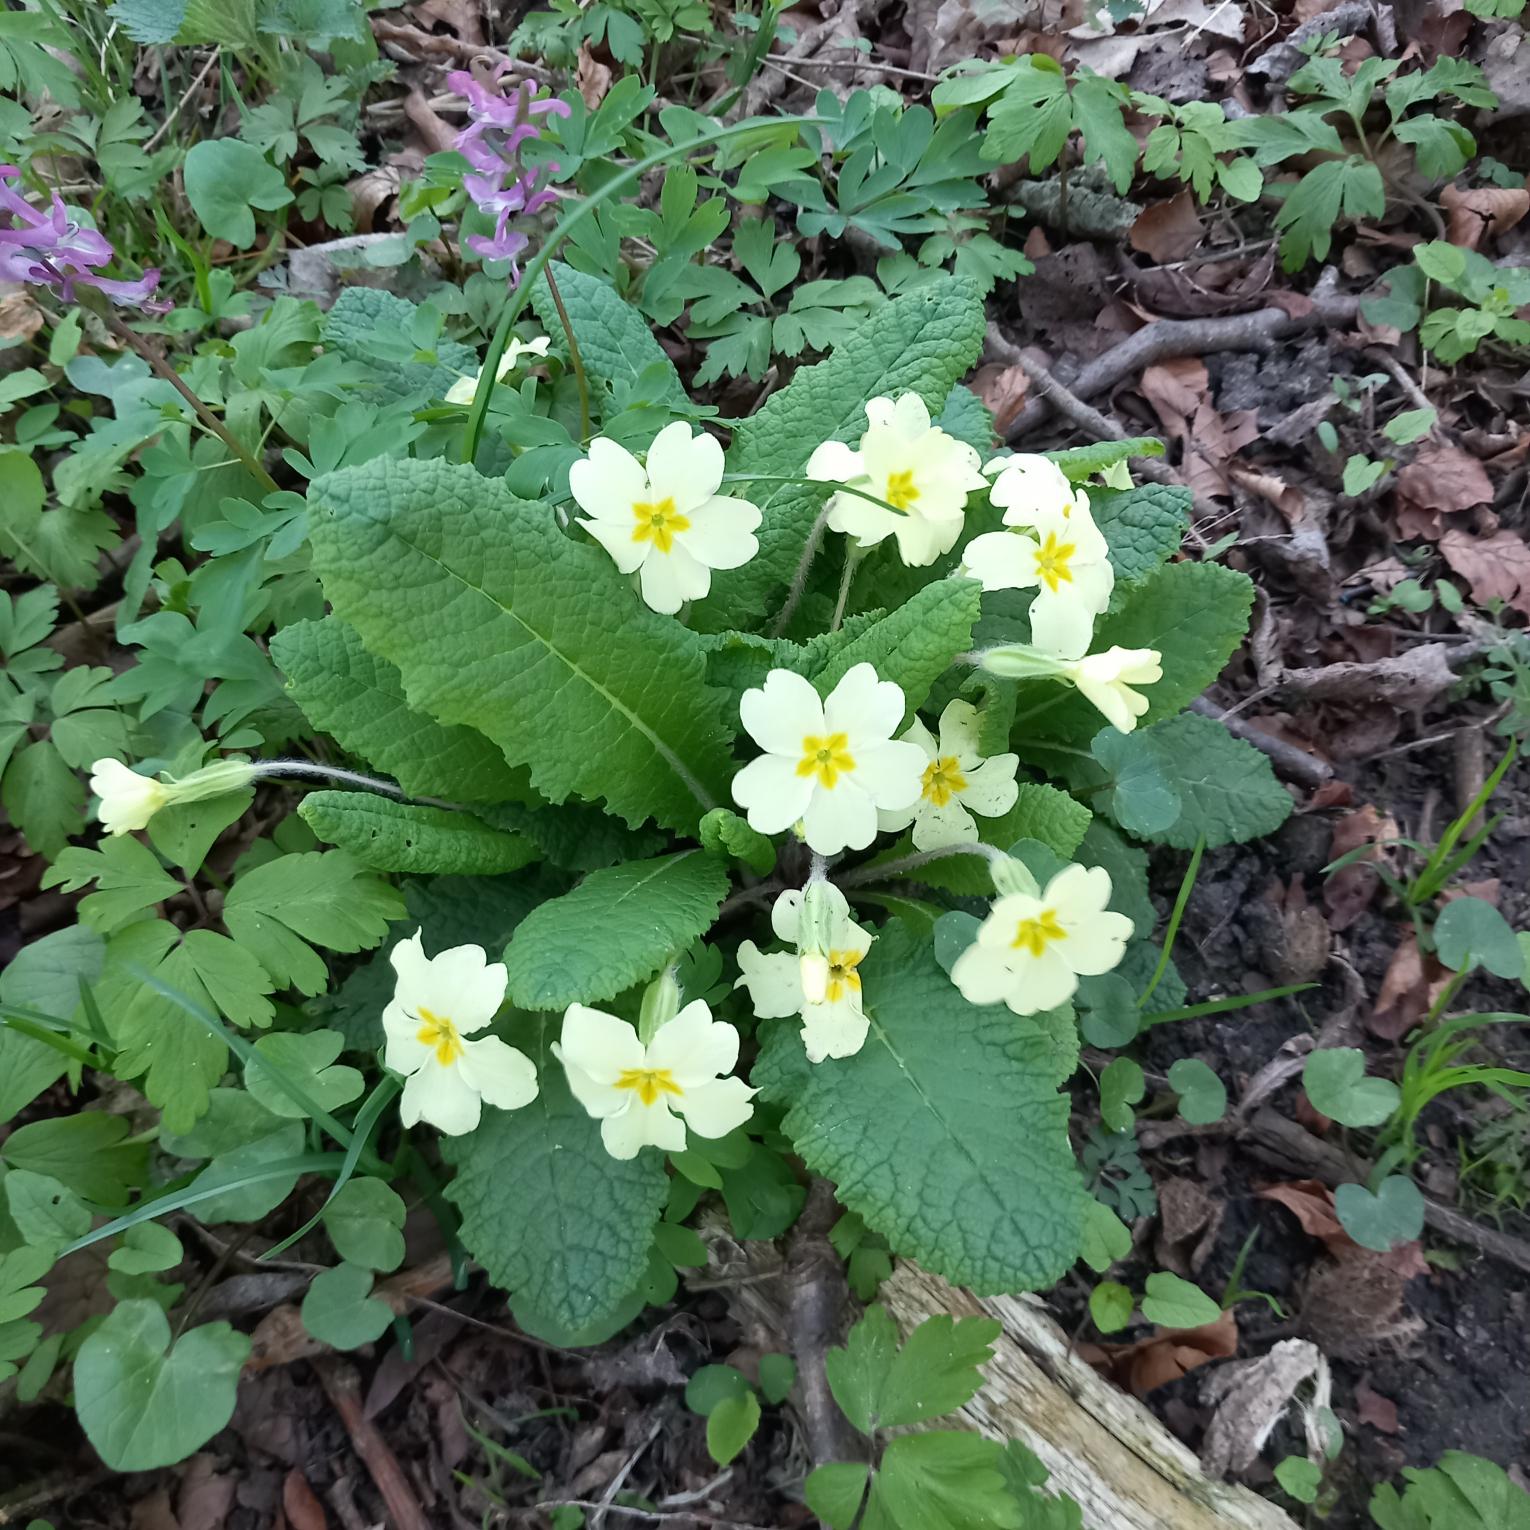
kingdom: Plantae
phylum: Tracheophyta
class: Magnoliopsida
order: Ericales
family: Primulaceae
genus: Primula
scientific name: Primula vulgaris
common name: Storblomstret kodriver
